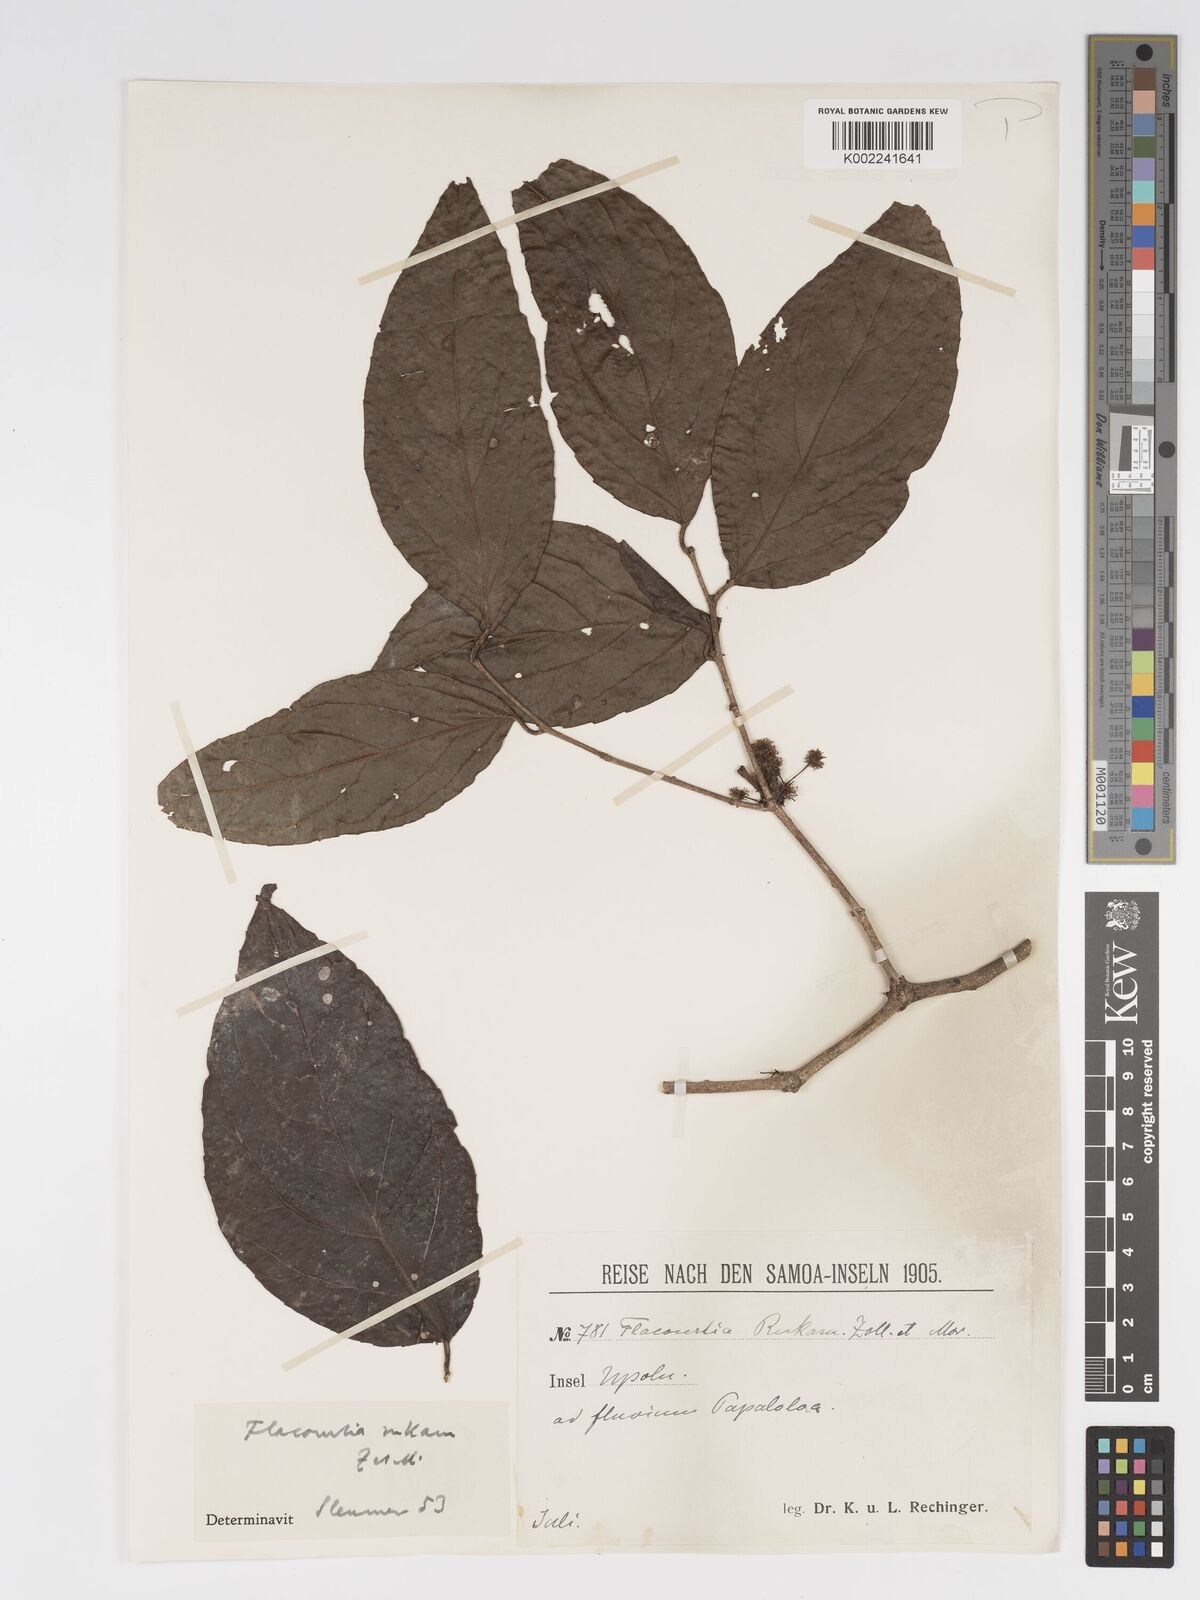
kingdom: Plantae
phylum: Tracheophyta
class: Magnoliopsida
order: Malpighiales
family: Salicaceae
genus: Flacourtia
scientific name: Flacourtia rukam
